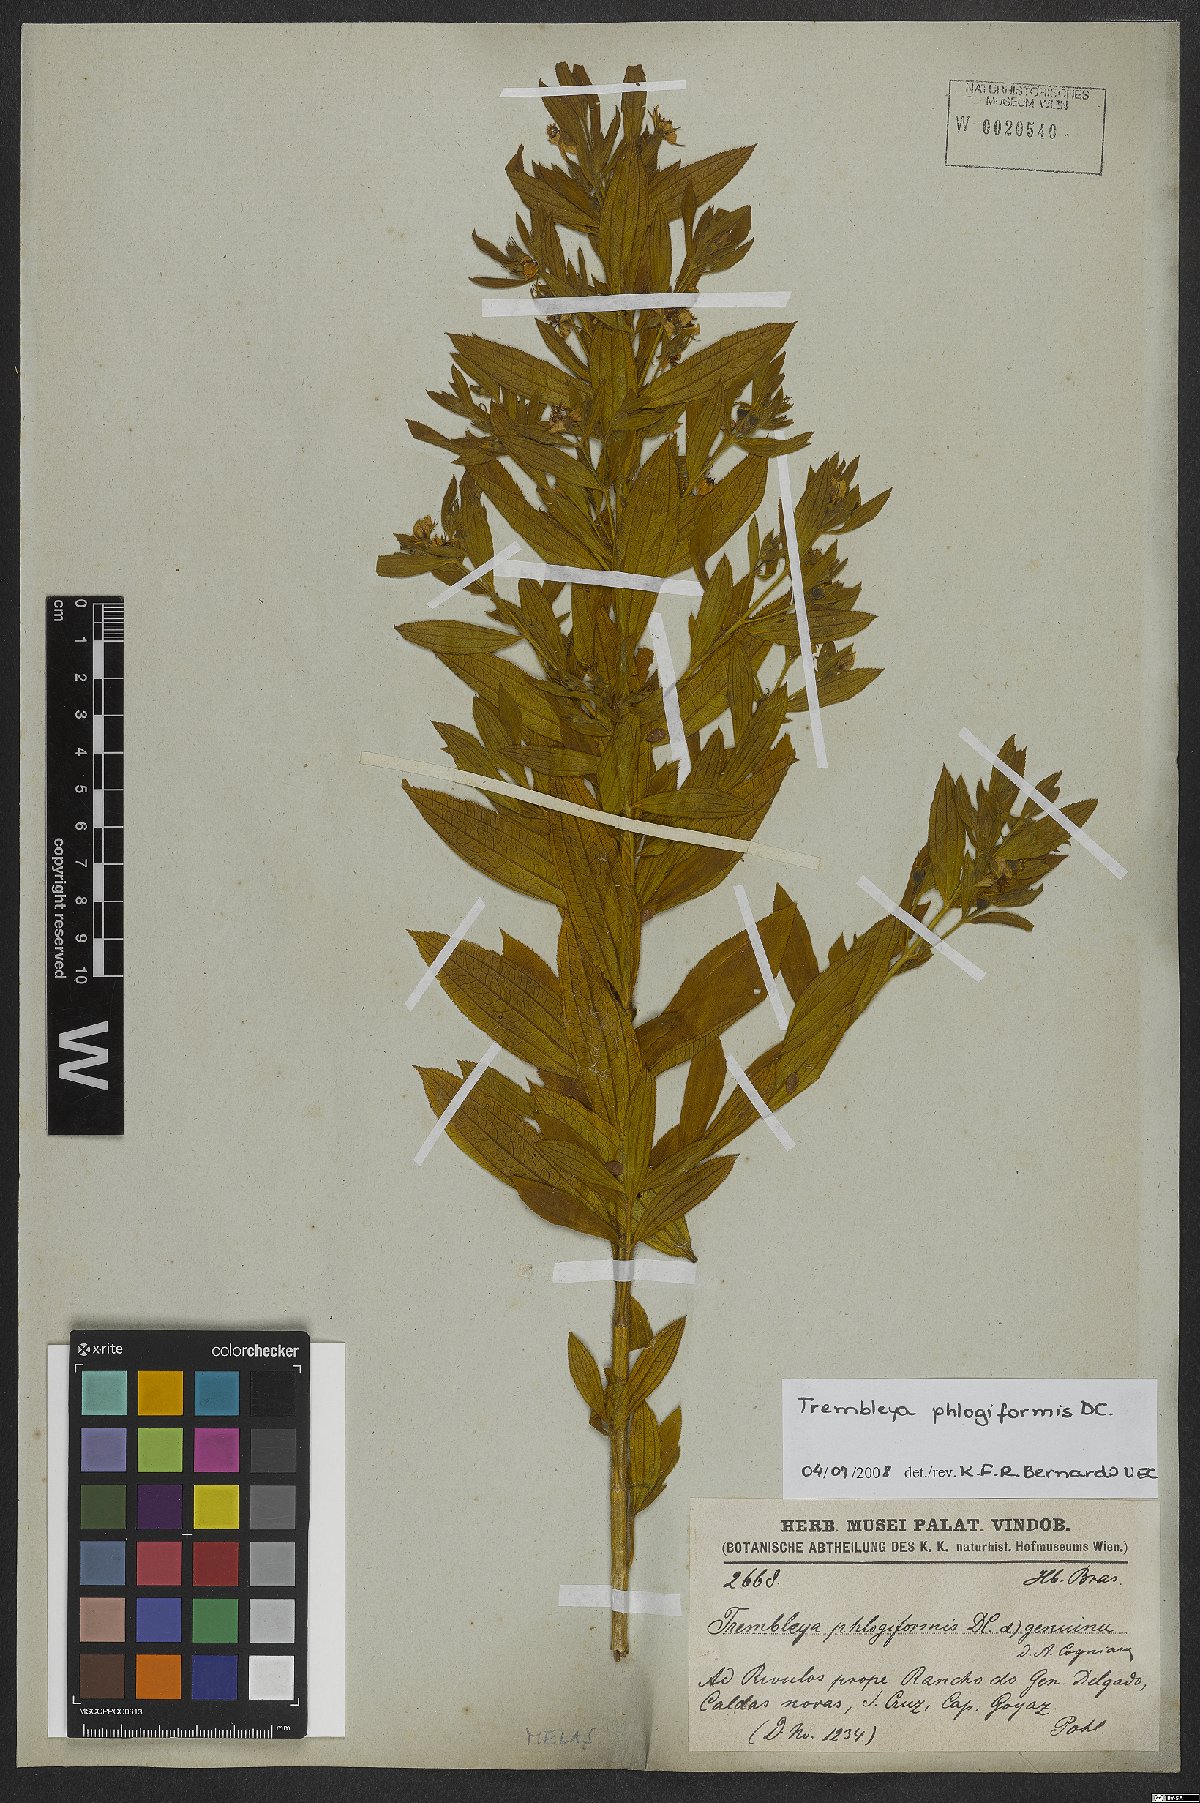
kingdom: Plantae
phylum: Tracheophyta
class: Magnoliopsida
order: Myrtales
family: Melastomataceae
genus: Microlicia
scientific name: Microlicia phlogiformis
